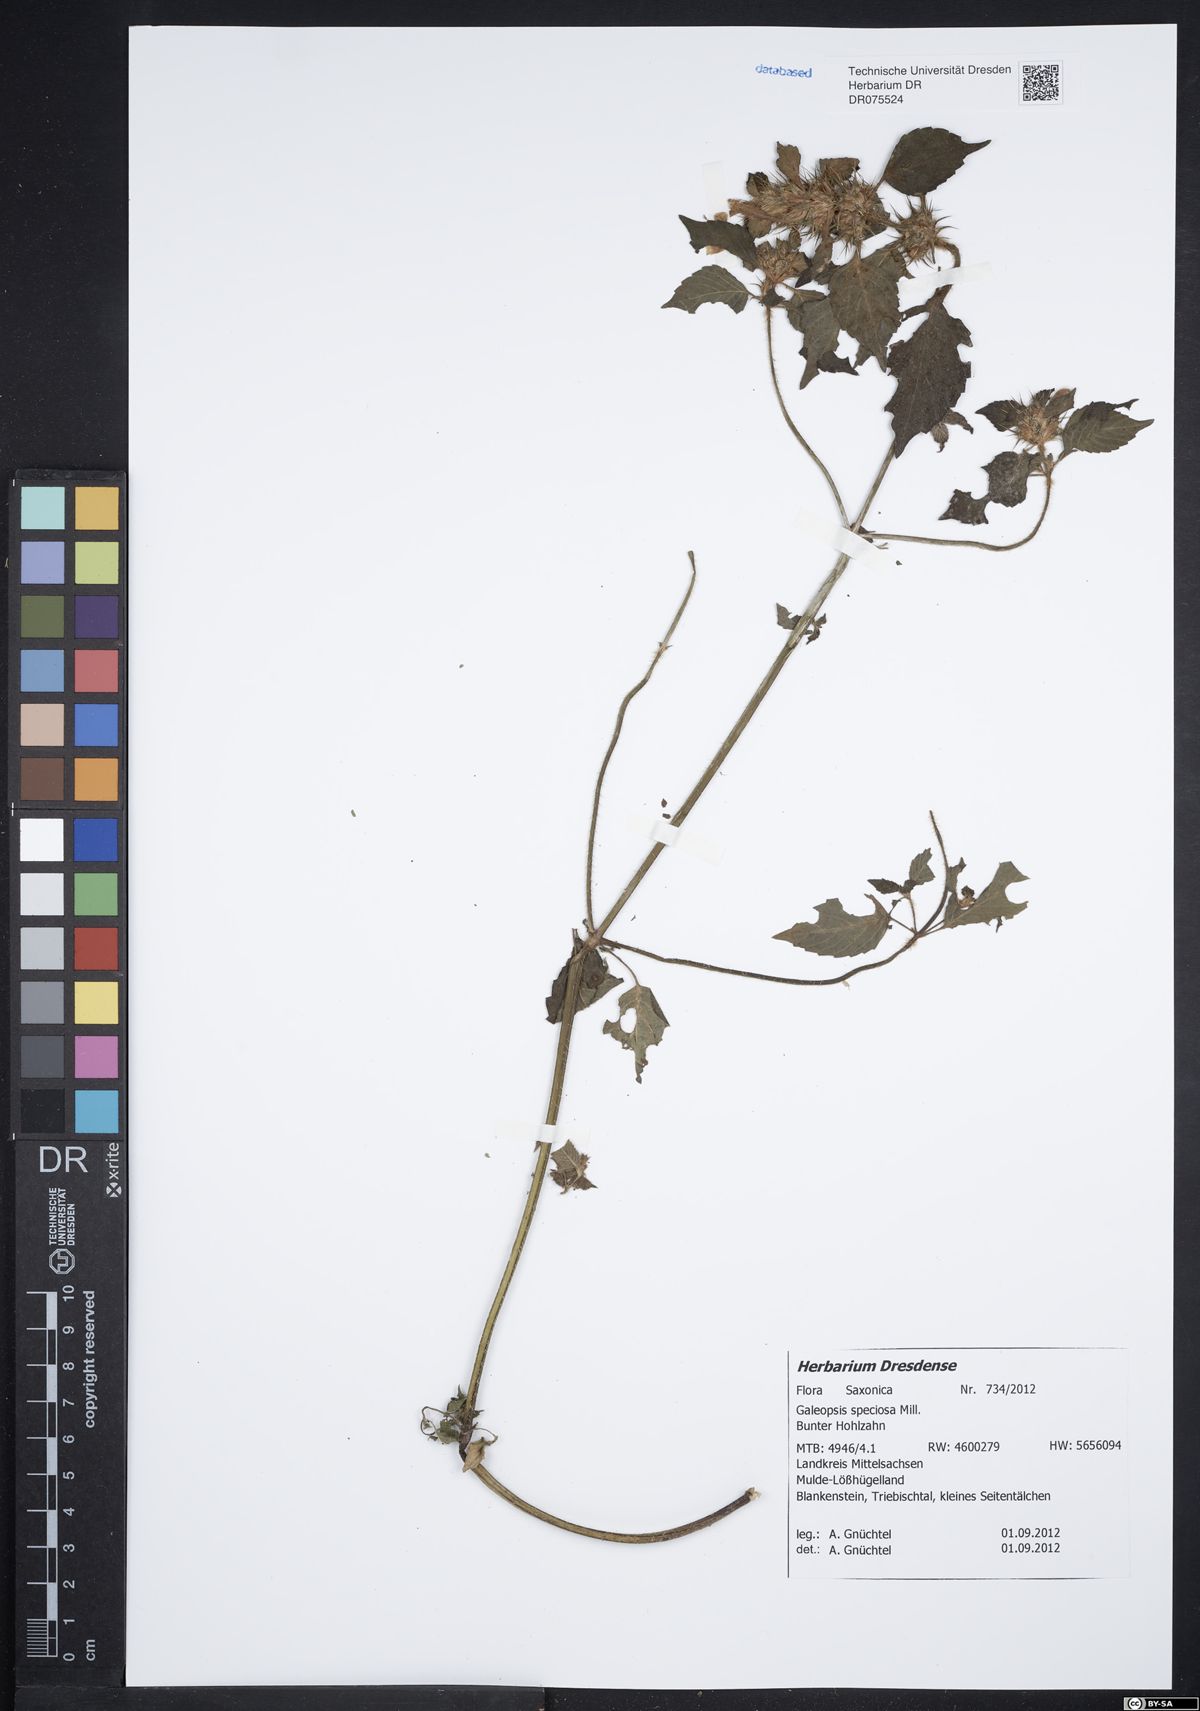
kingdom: Plantae
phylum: Tracheophyta
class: Magnoliopsida
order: Lamiales
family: Lamiaceae
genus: Galeopsis
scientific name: Galeopsis speciosa
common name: Large-flowered hemp-nettle
